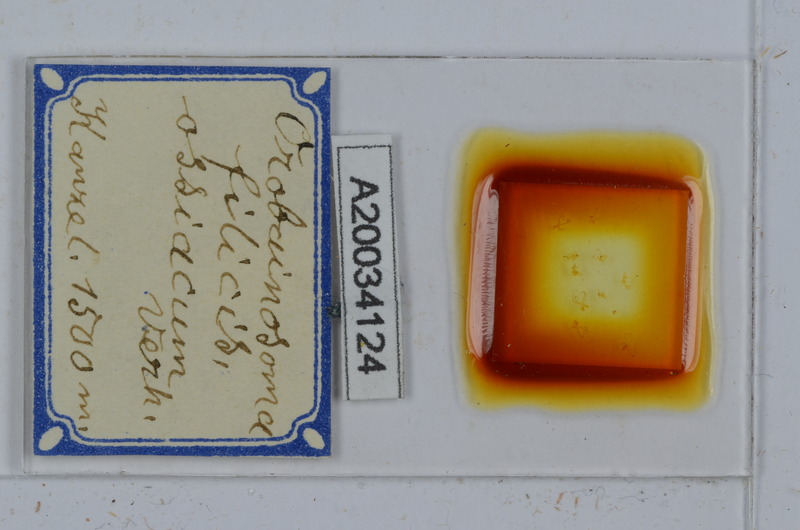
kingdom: Animalia
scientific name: Animalia
